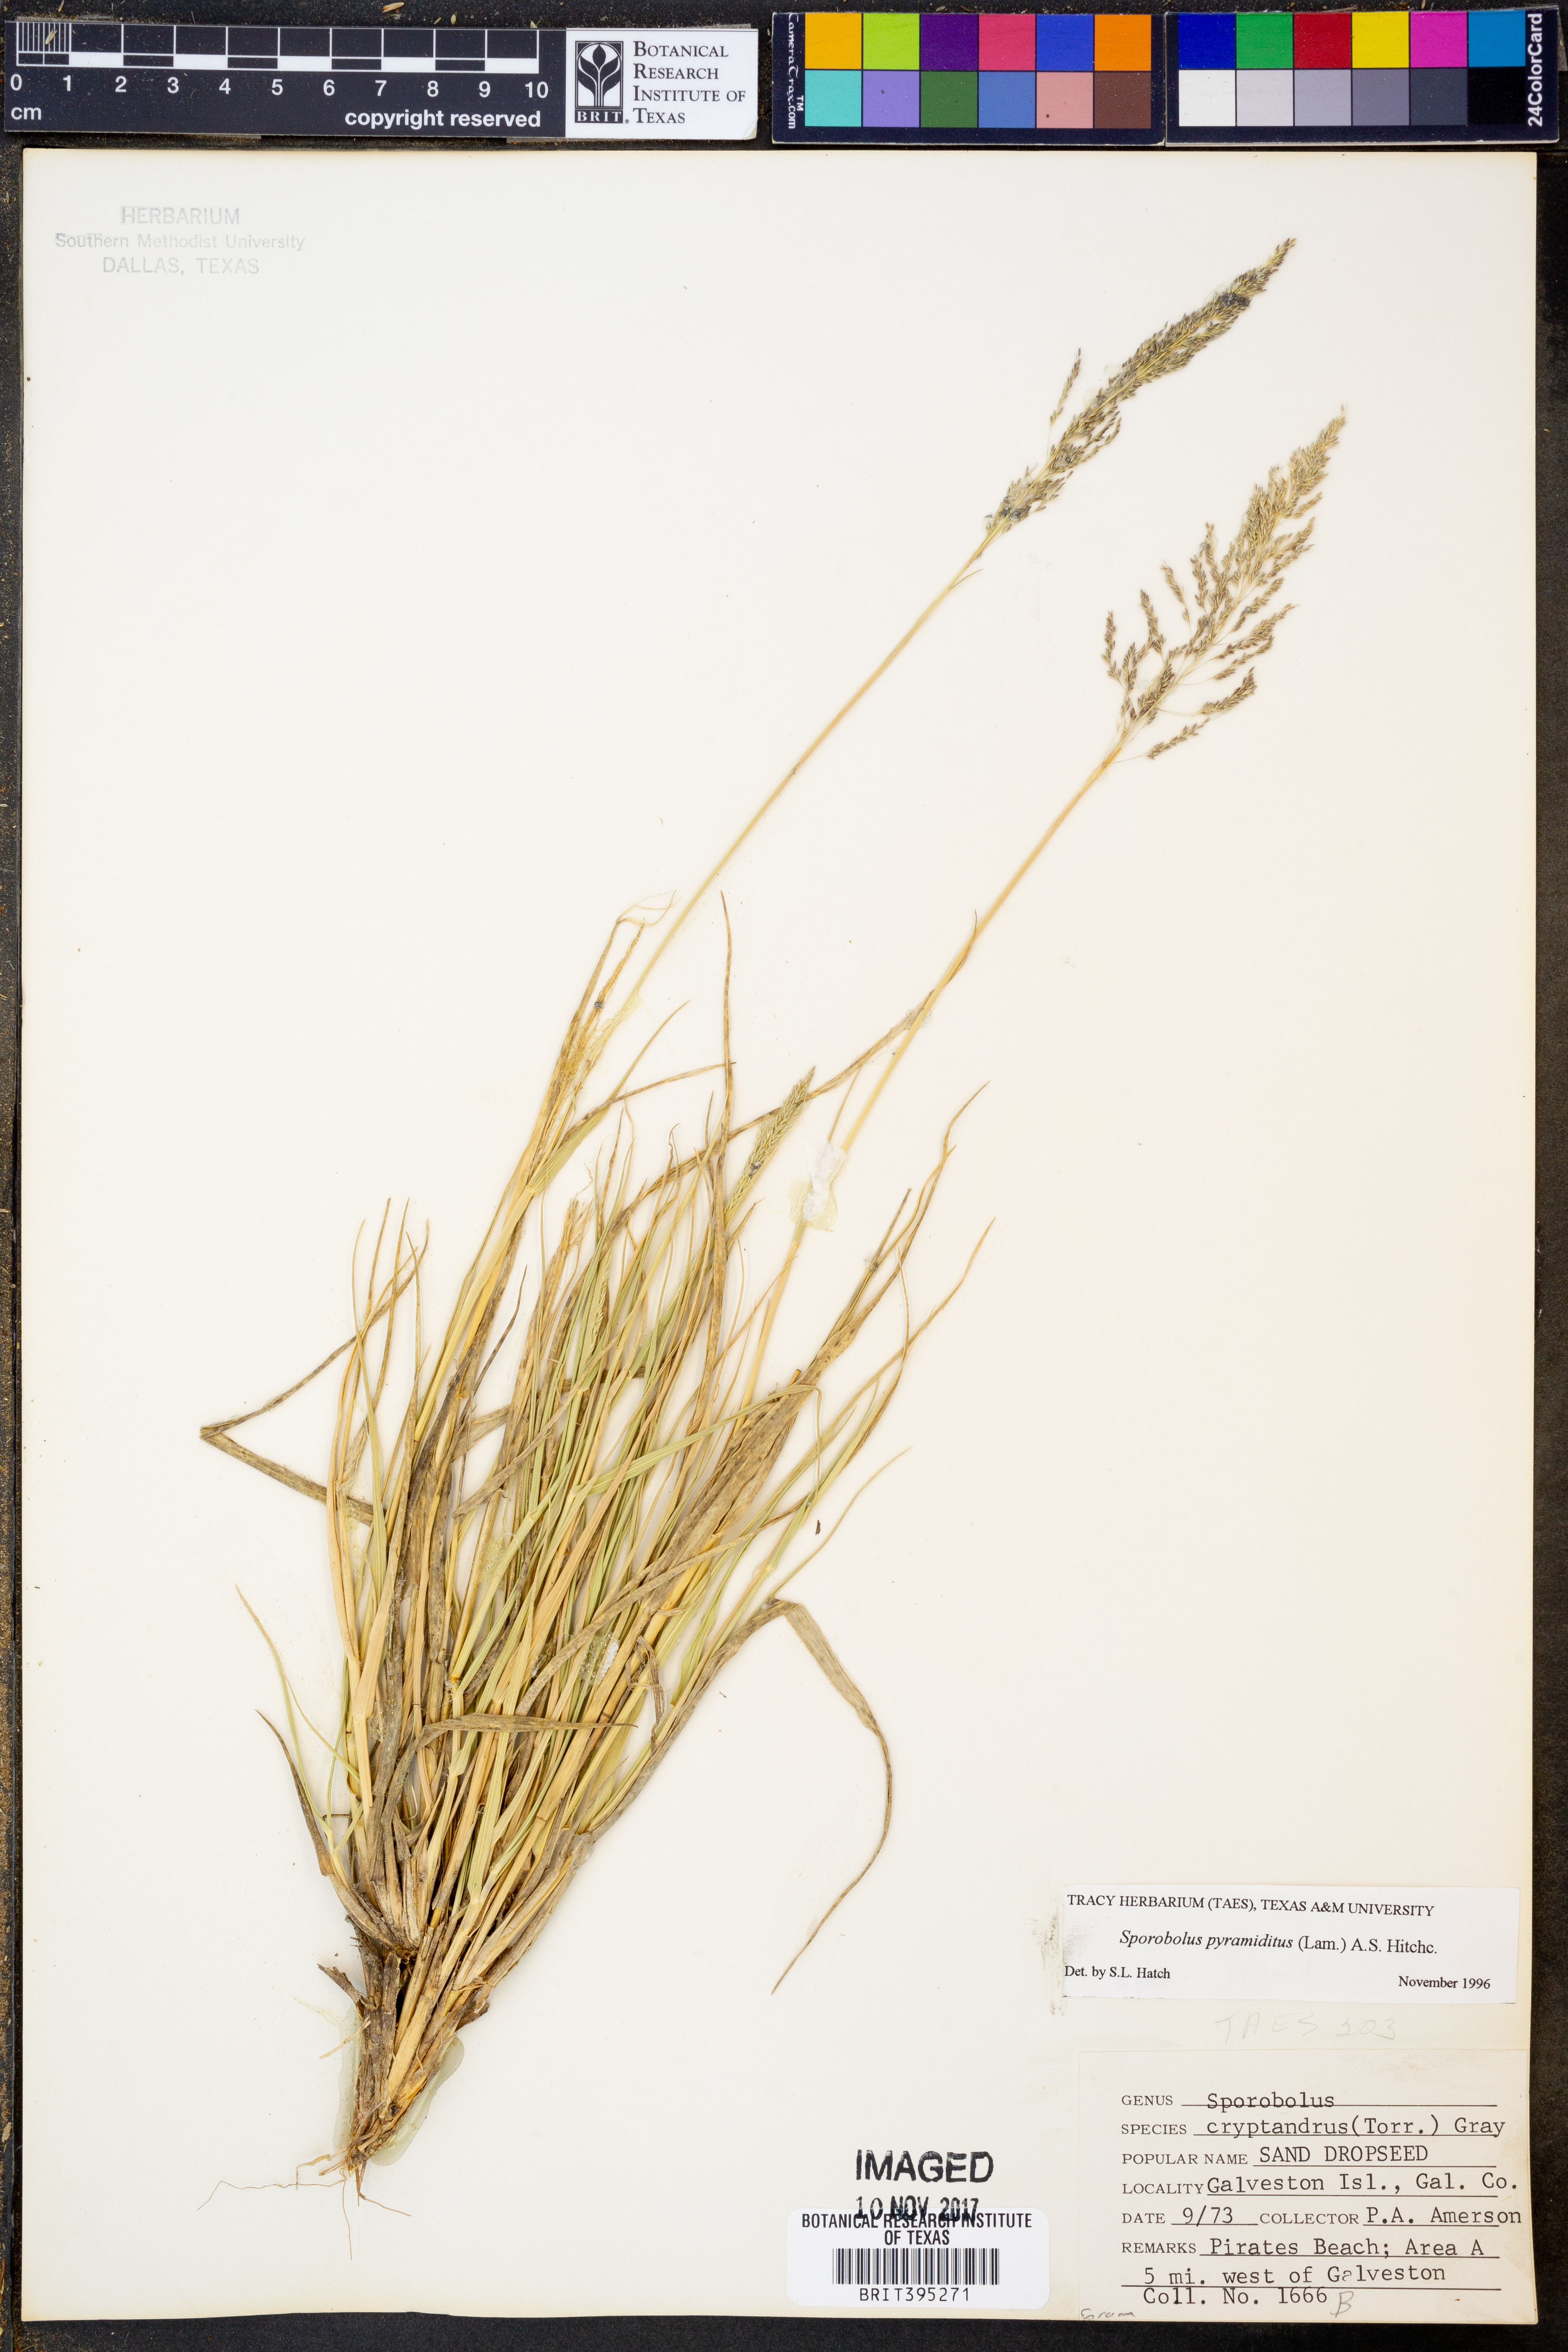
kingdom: Plantae
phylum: Tracheophyta
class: Liliopsida
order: Poales
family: Poaceae
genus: Sporobolus
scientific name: Sporobolus pyramidatus
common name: Whorled dropseed
